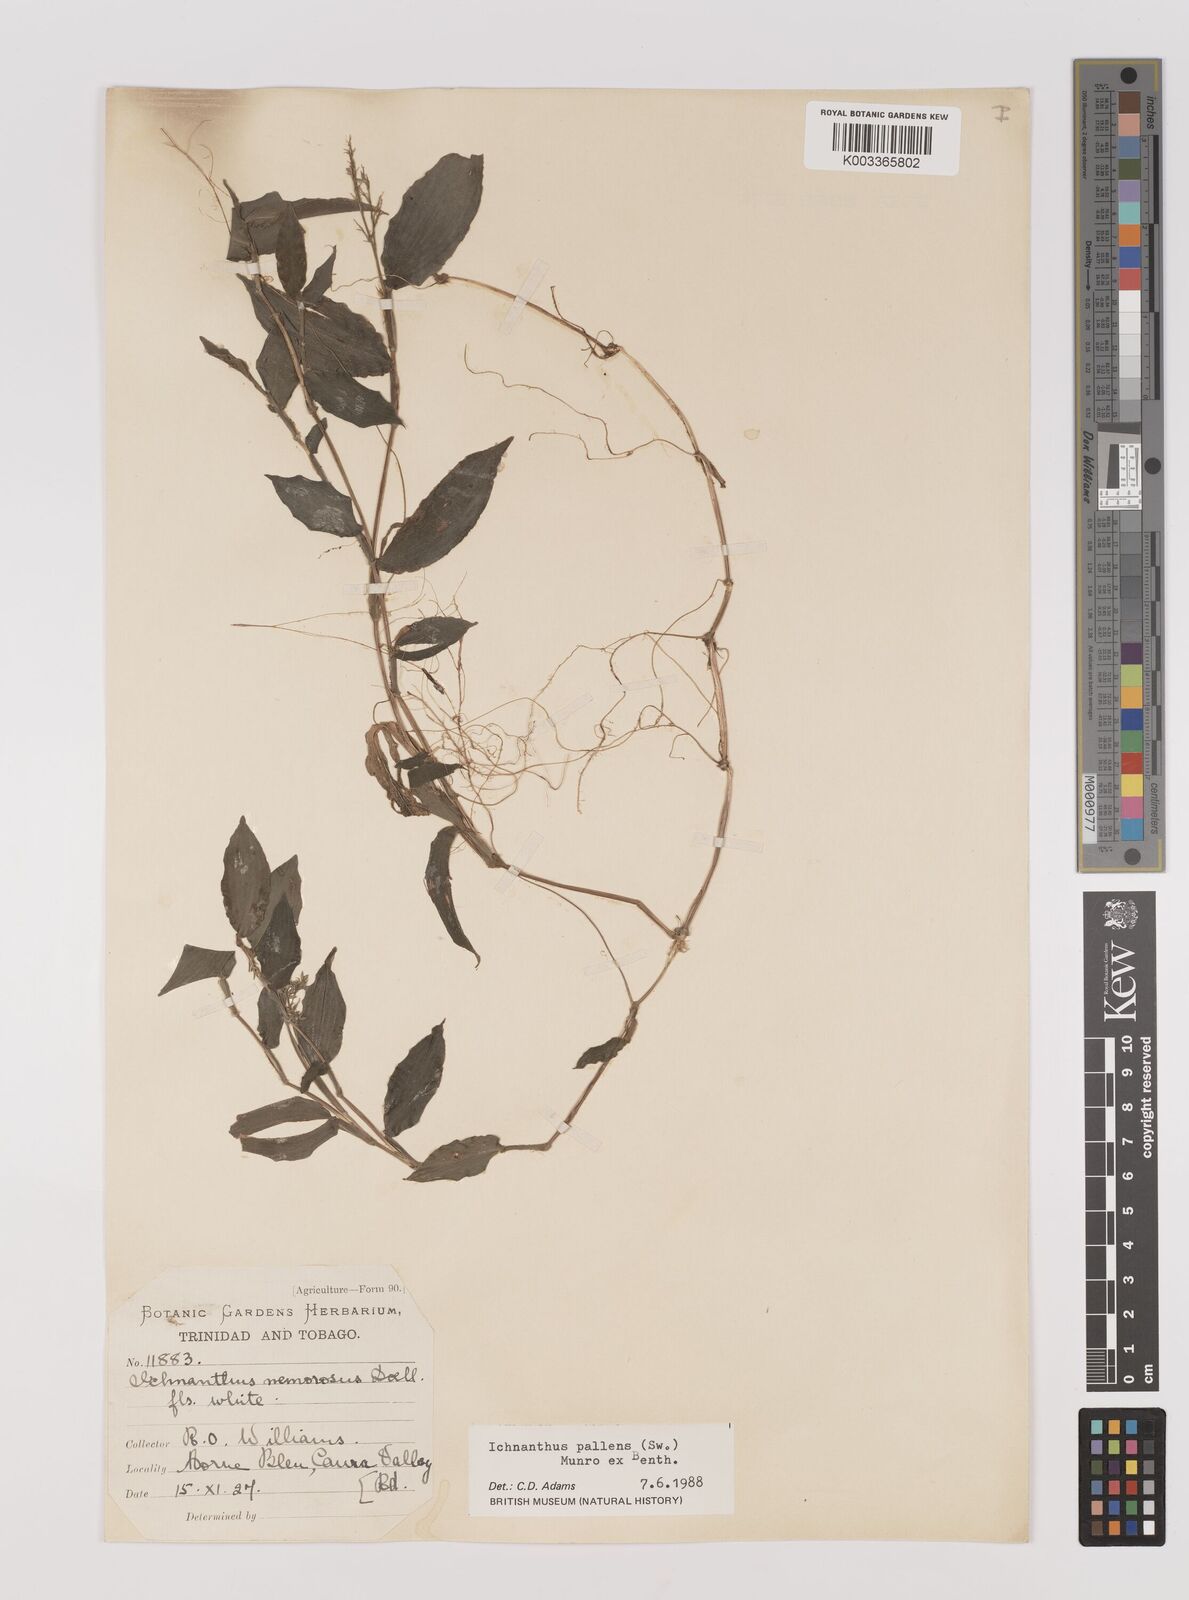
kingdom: Plantae
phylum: Tracheophyta
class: Liliopsida
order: Poales
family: Poaceae
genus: Ichnanthus
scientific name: Ichnanthus pallens
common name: Water grass
